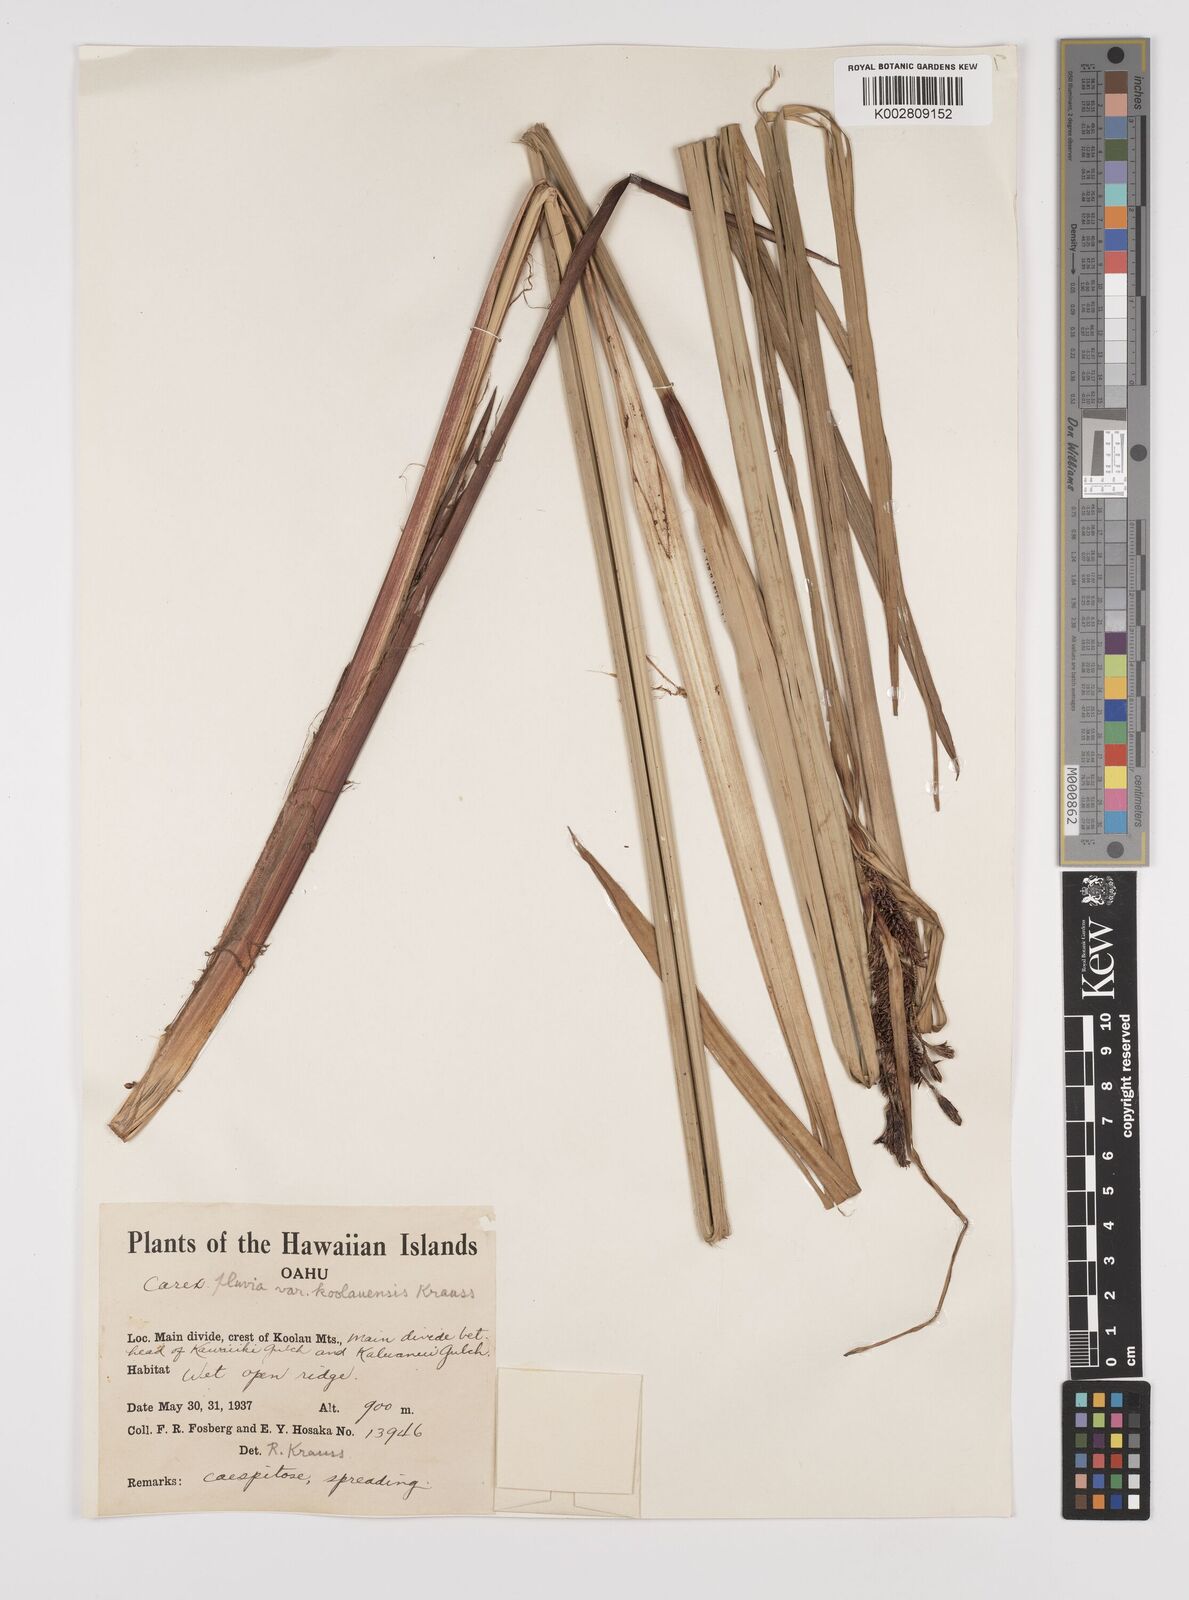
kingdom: Plantae
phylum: Tracheophyta
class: Liliopsida
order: Poales
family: Cyperaceae
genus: Carex
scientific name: Carex alligata
